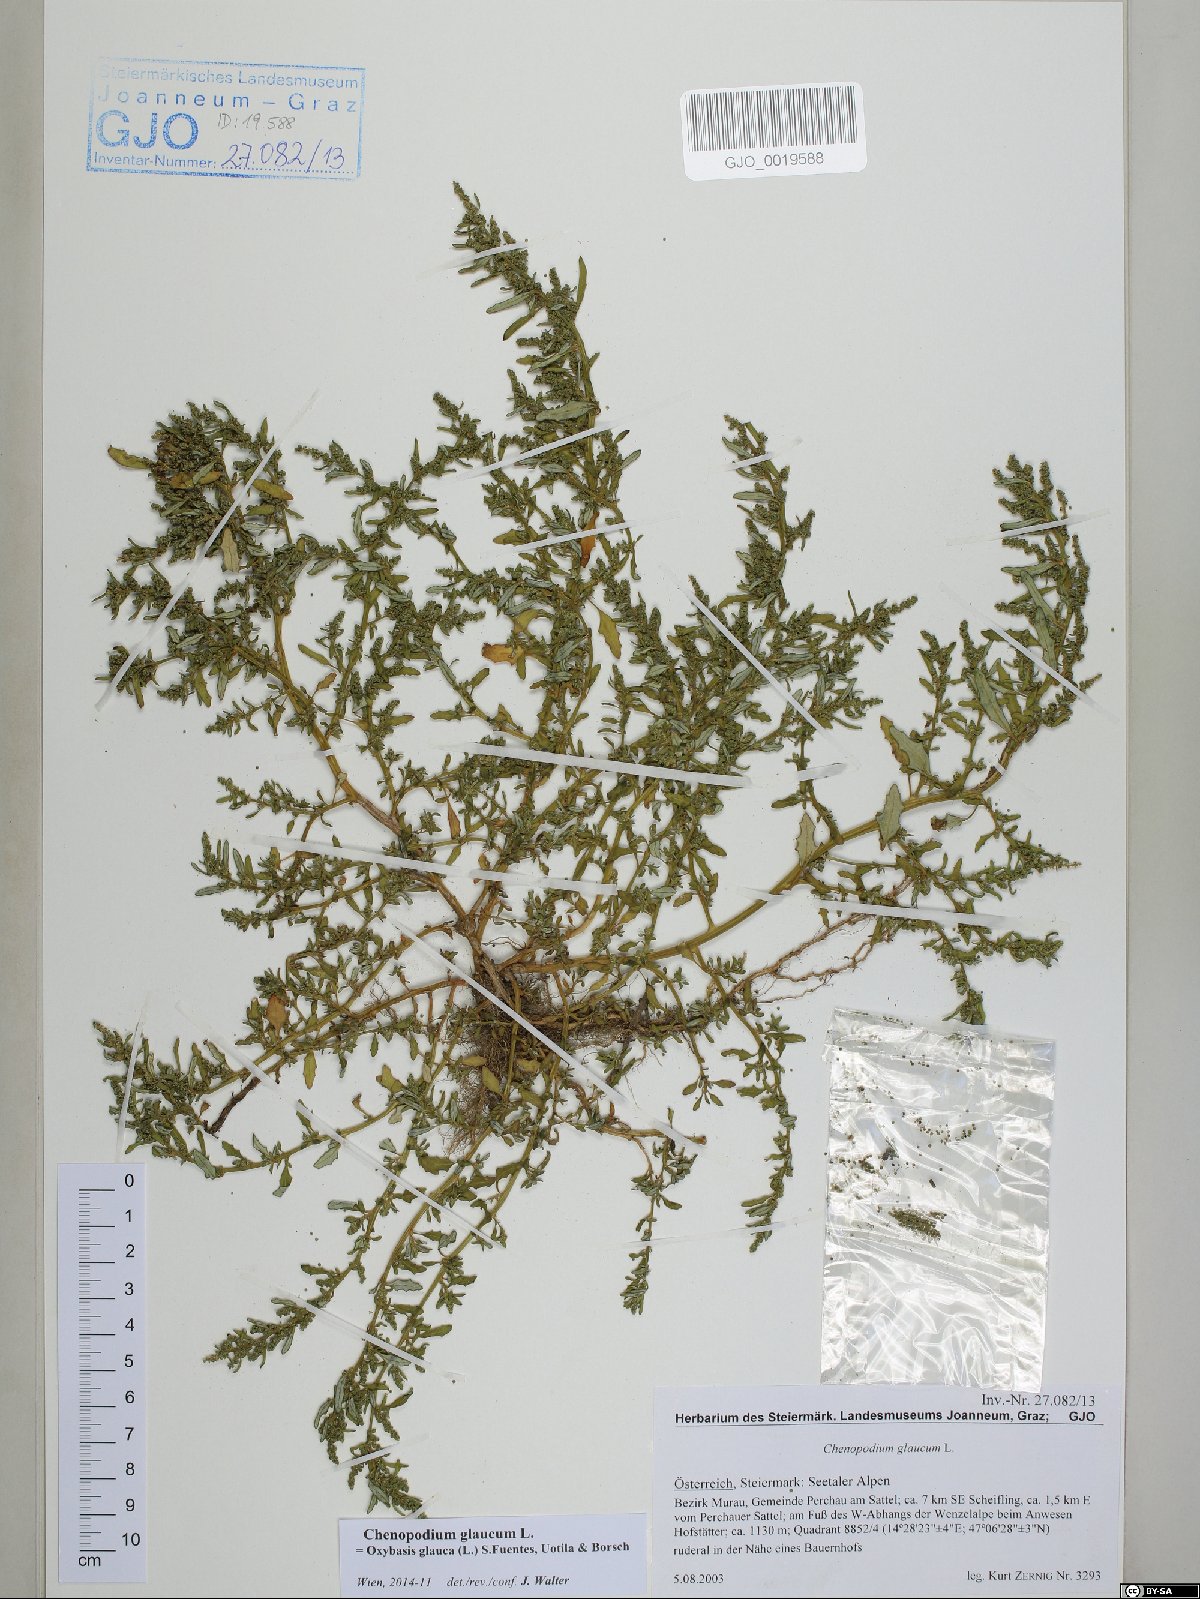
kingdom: Plantae
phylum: Tracheophyta
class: Magnoliopsida
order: Caryophyllales
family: Amaranthaceae
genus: Oxybasis
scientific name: Oxybasis glauca
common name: Glaucous goosefoot
